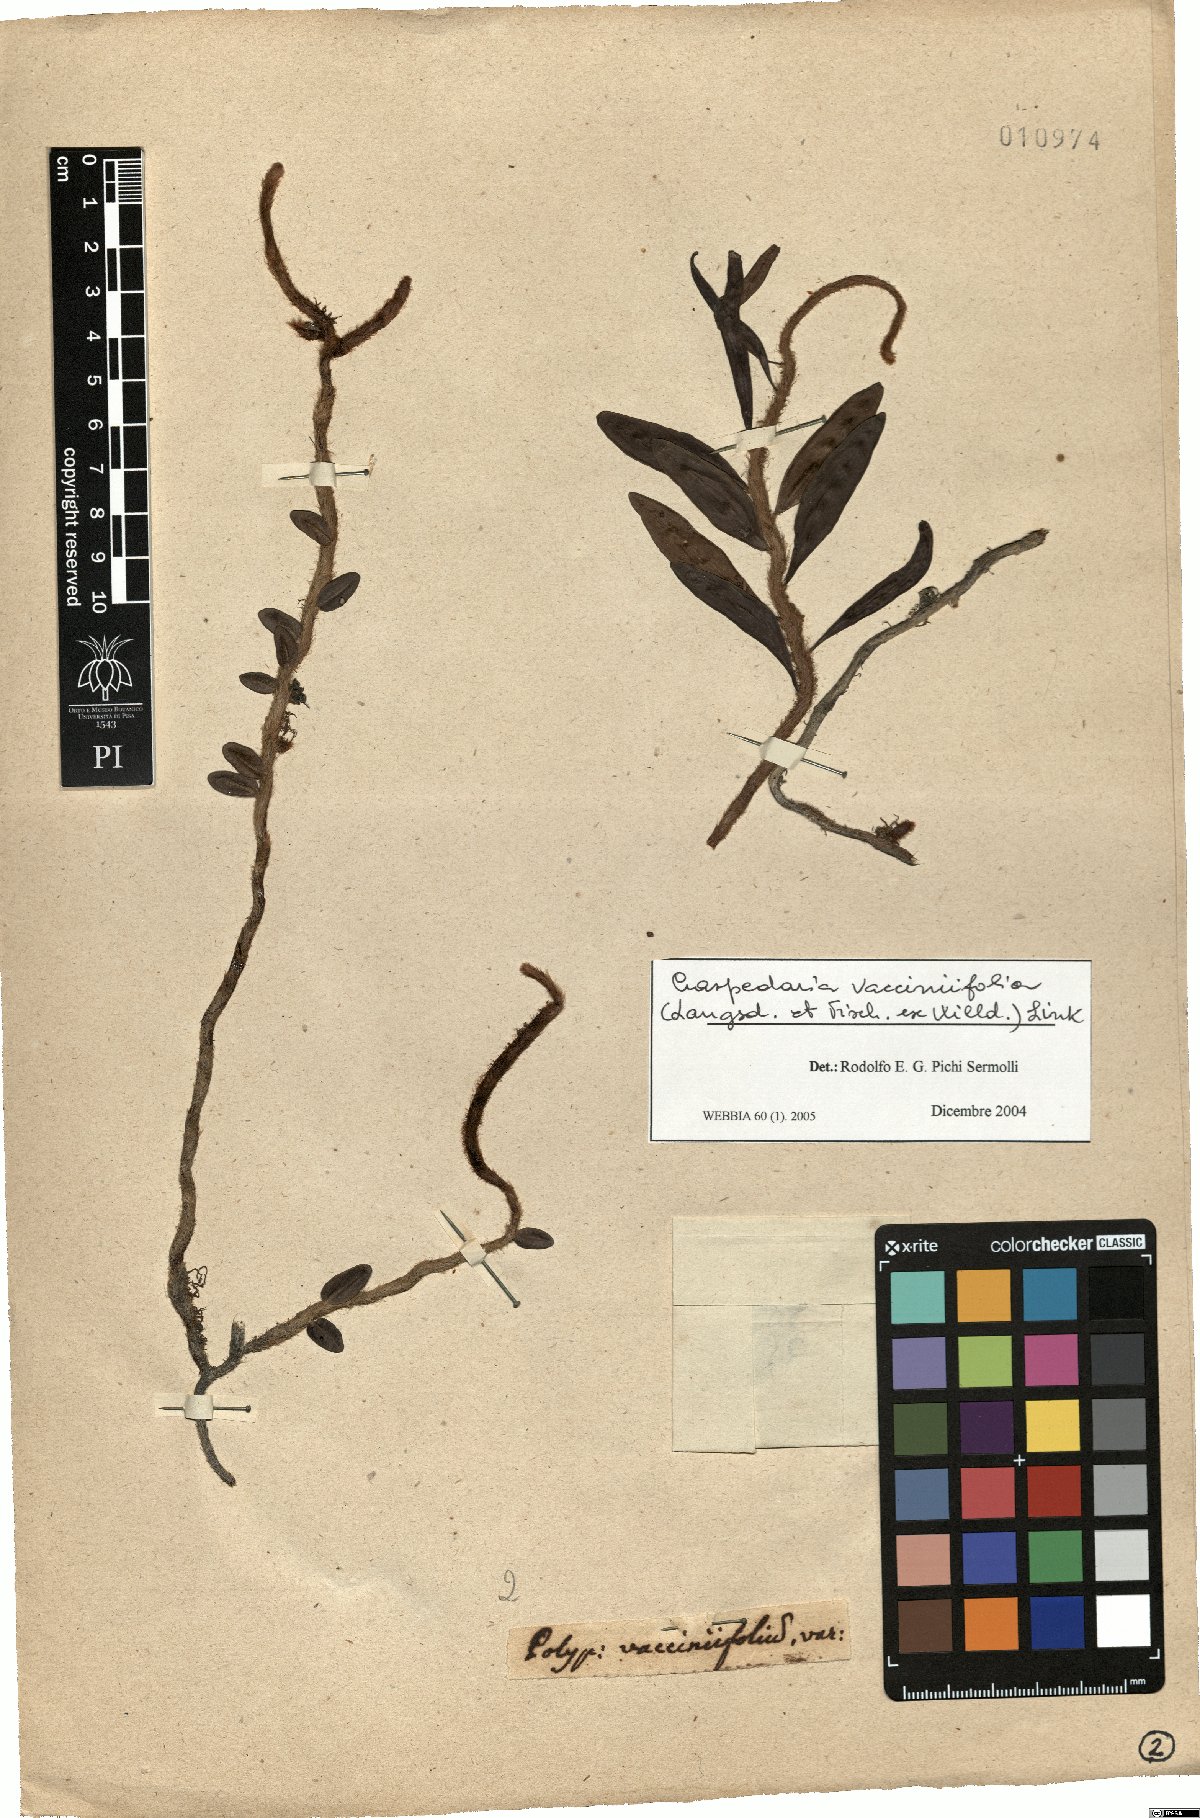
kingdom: Plantae
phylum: Tracheophyta
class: Polypodiopsida
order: Polypodiales
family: Polypodiaceae
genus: Microgramma
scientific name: Microgramma vaccinifolia
